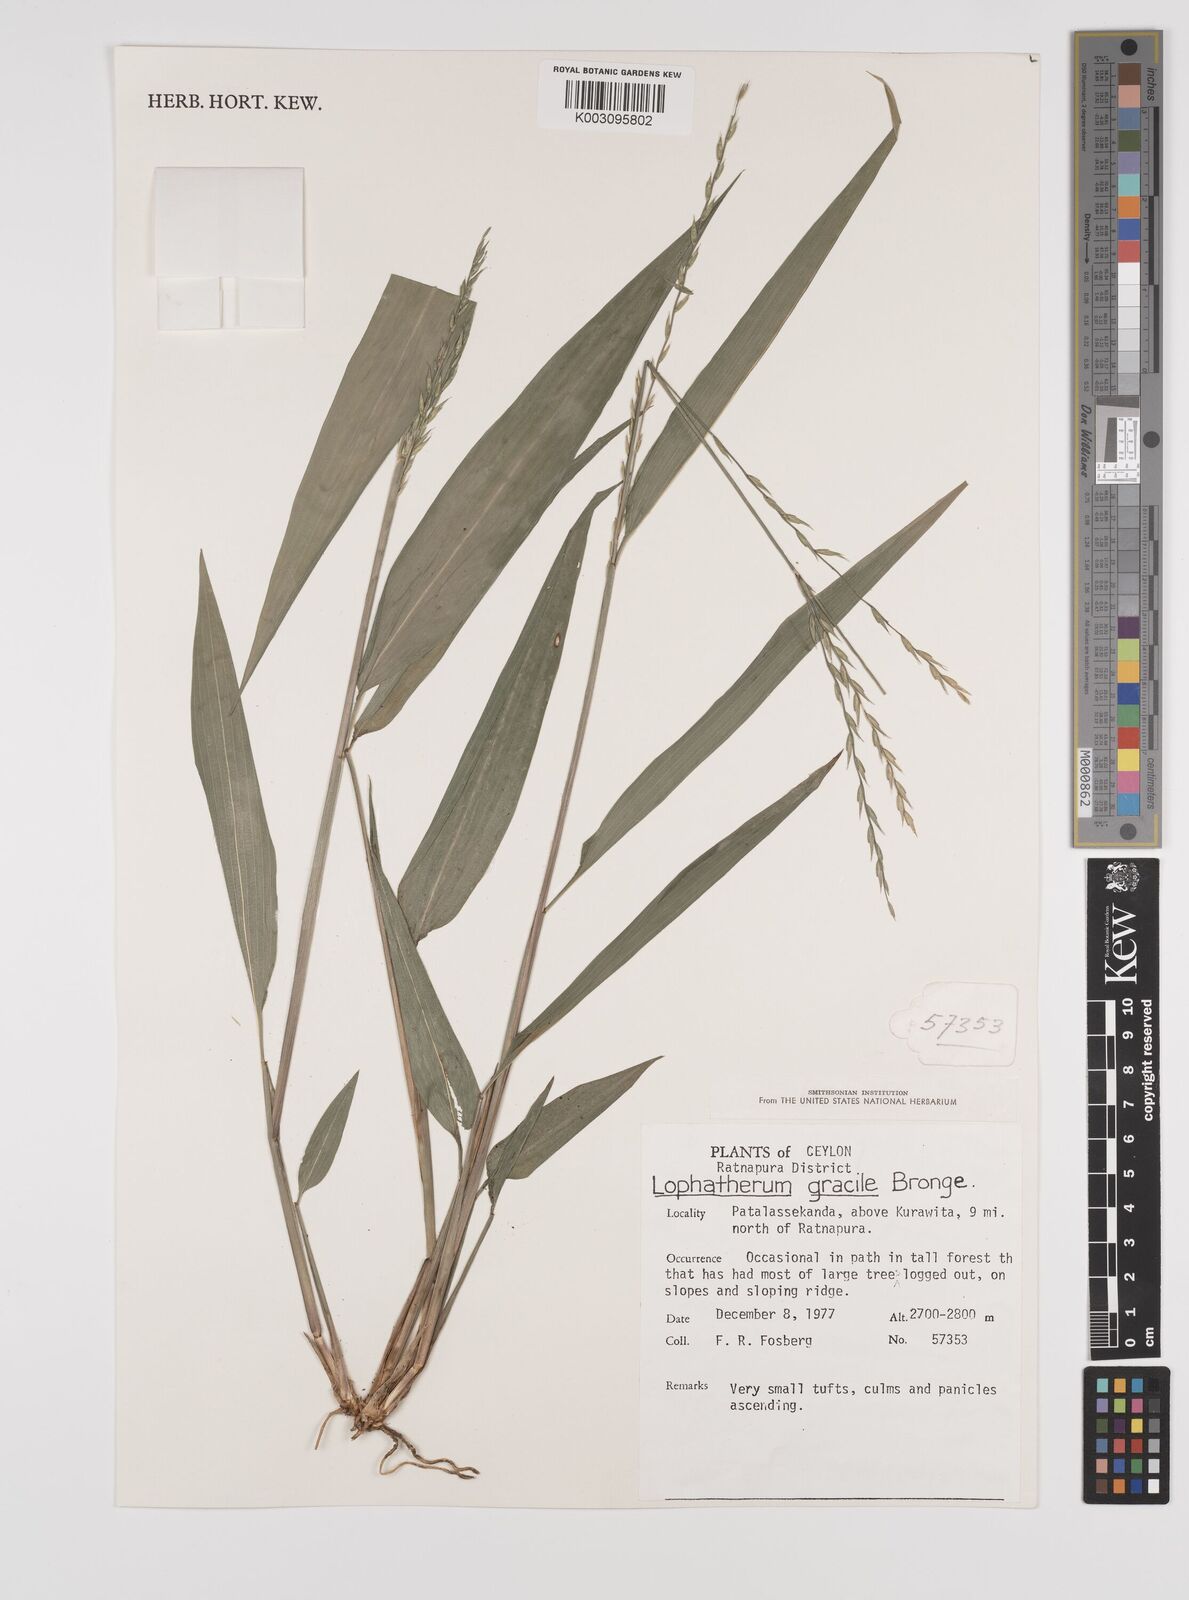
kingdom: Plantae
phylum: Tracheophyta
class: Liliopsida
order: Poales
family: Poaceae
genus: Lophatherum
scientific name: Lophatherum gracile
